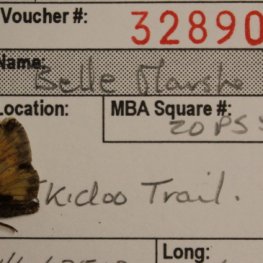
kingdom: Animalia
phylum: Arthropoda
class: Insecta
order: Lepidoptera
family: Hesperiidae
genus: Lon
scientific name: Lon hobomok
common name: Hobomok Skipper
